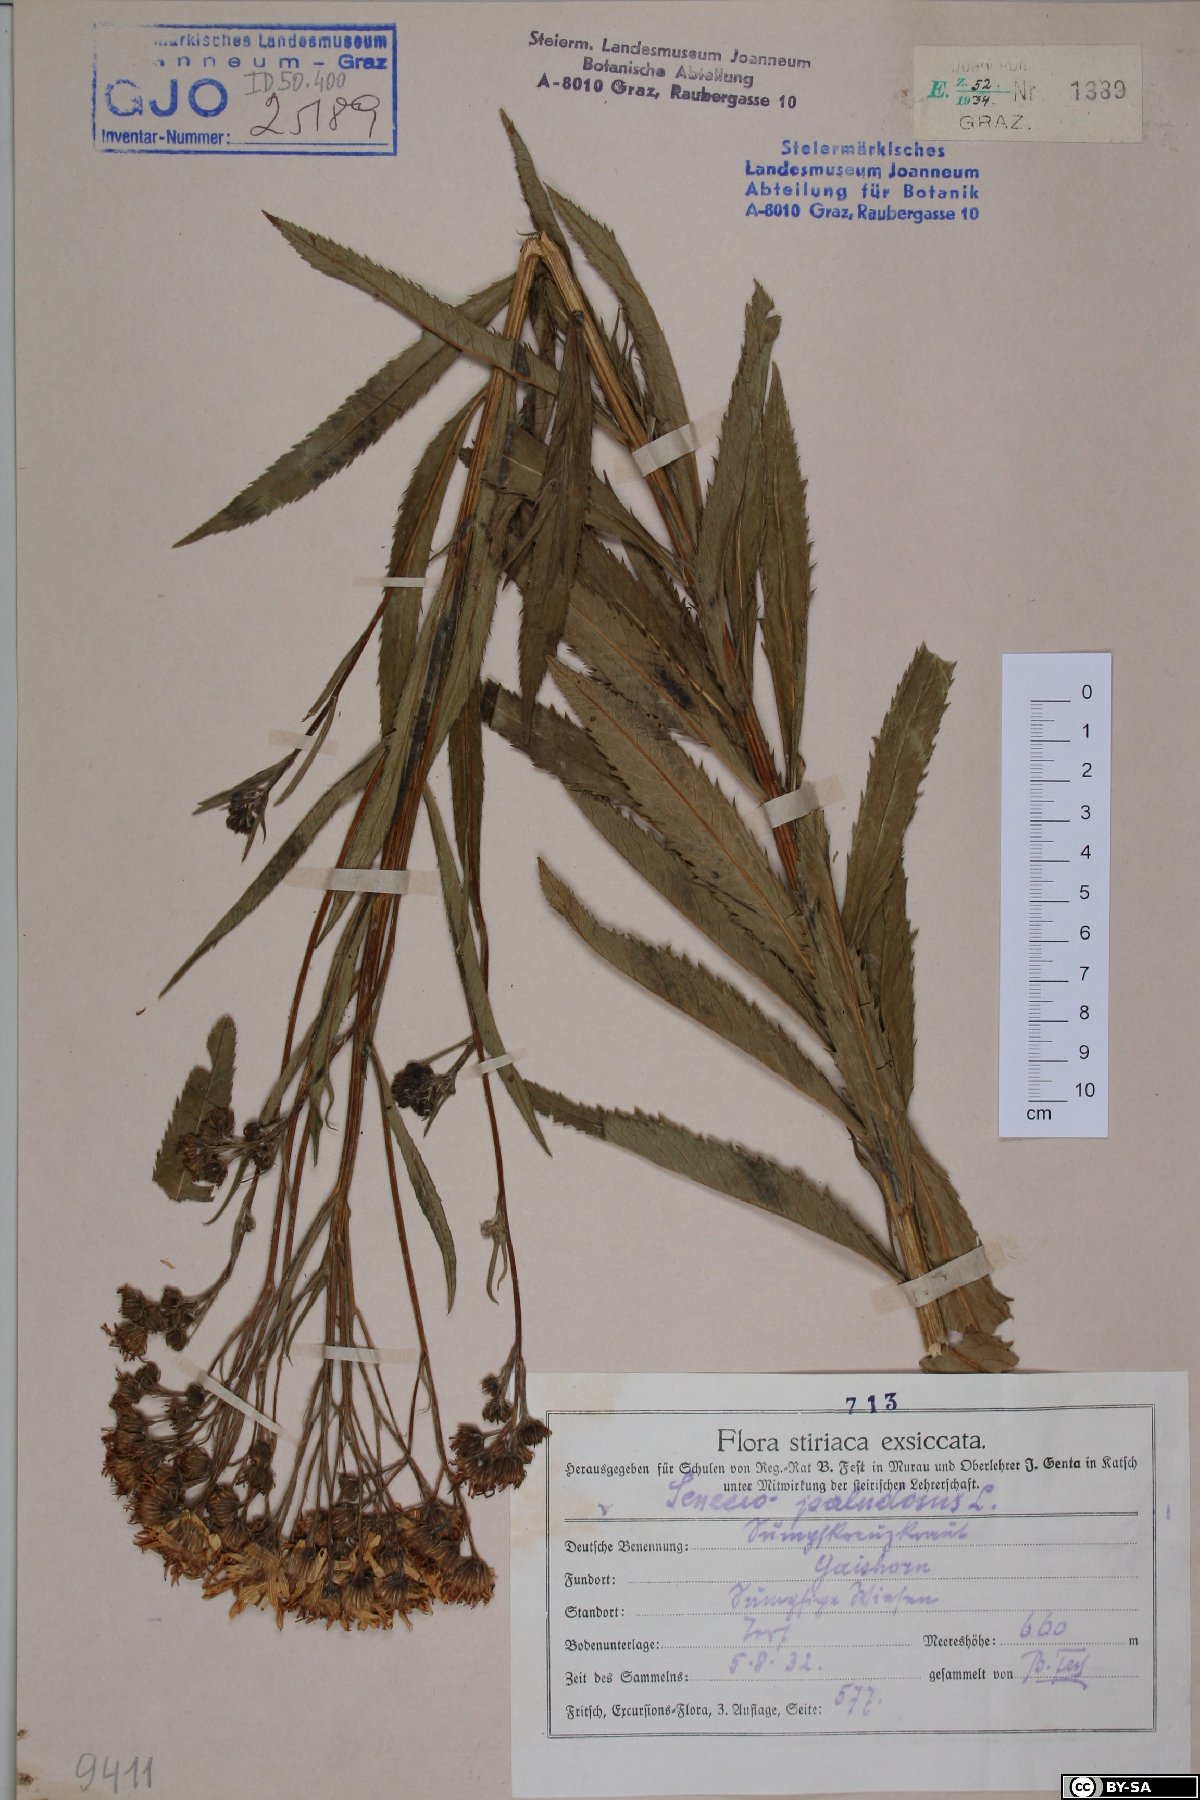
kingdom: Plantae
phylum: Tracheophyta
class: Magnoliopsida
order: Asterales
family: Asteraceae
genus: Jacobaea
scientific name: Jacobaea paludosa
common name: Fen ragwort
